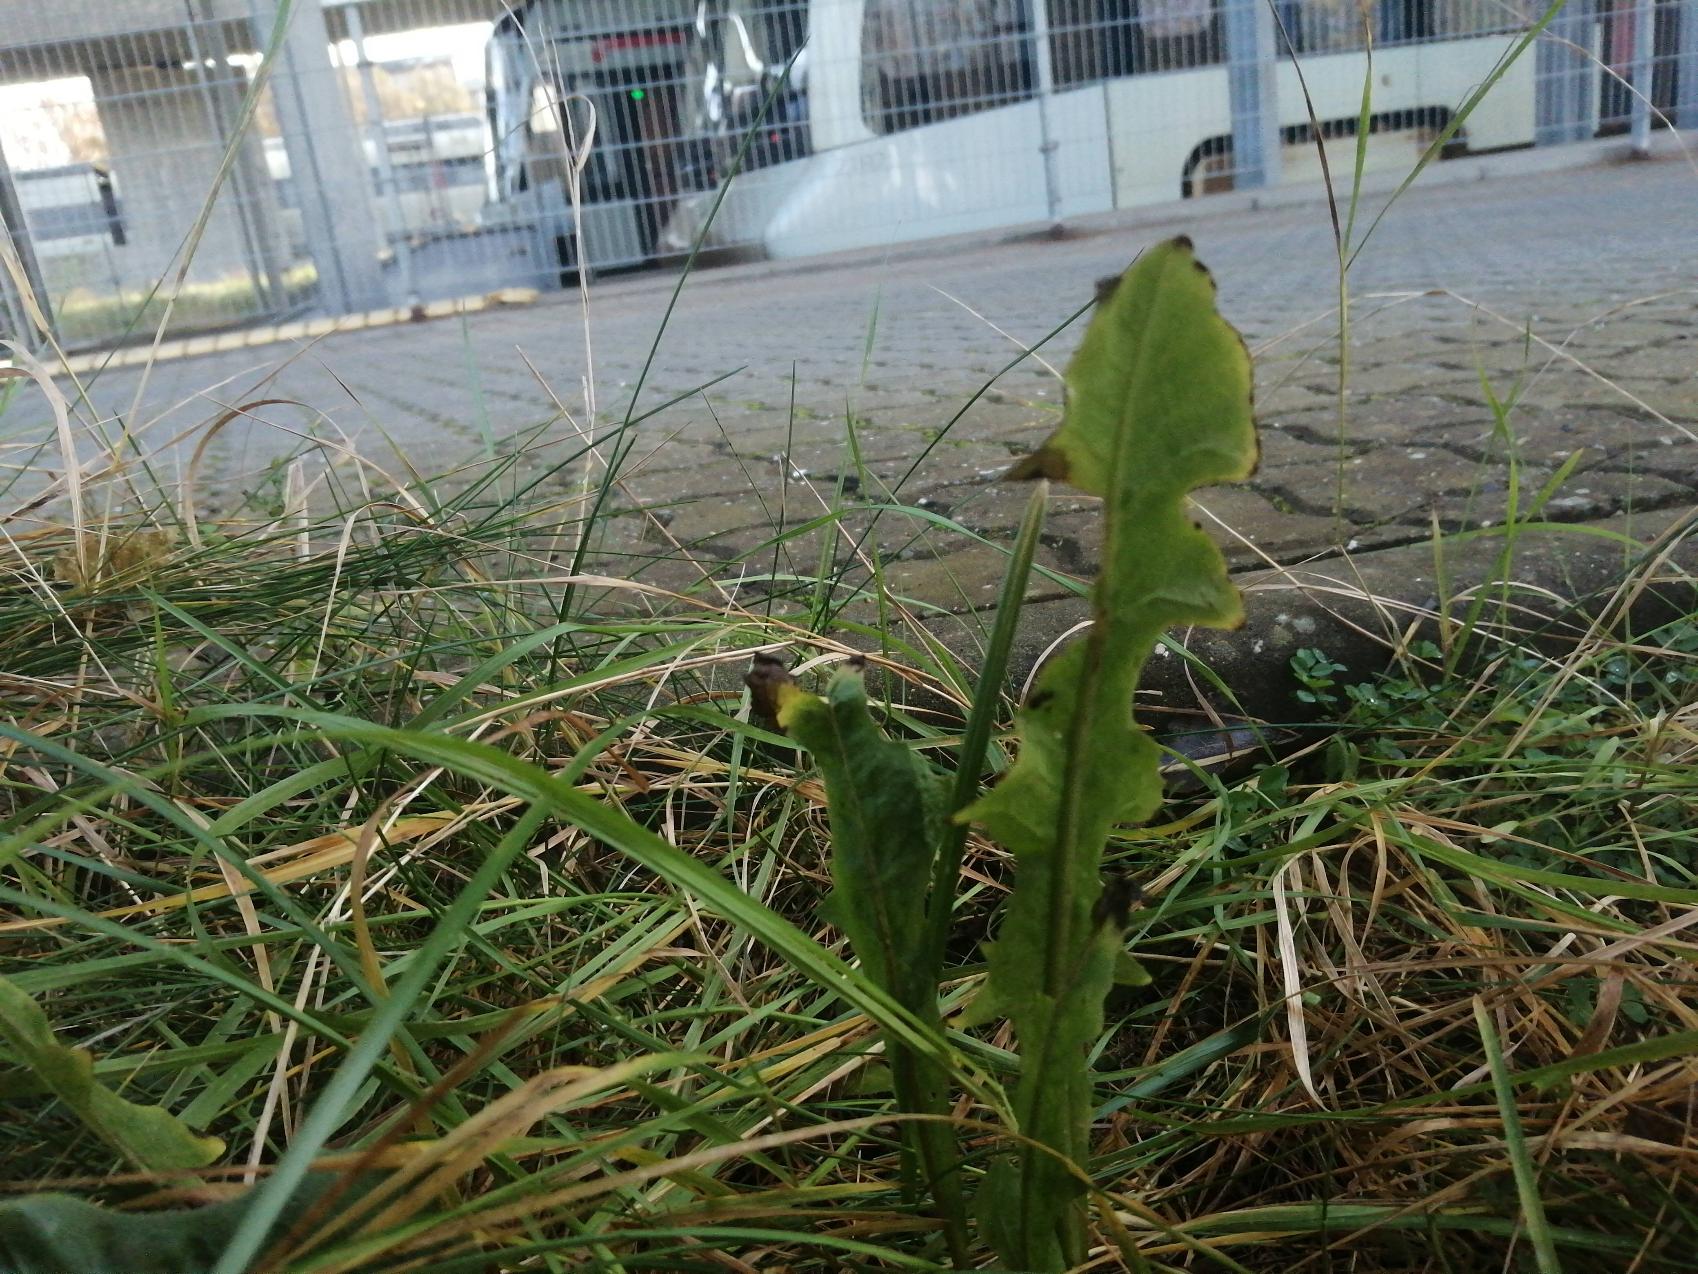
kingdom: Plantae
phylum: Tracheophyta
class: Magnoliopsida
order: Asterales
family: Asteraceae
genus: Taraxacum
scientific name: Taraxacum
